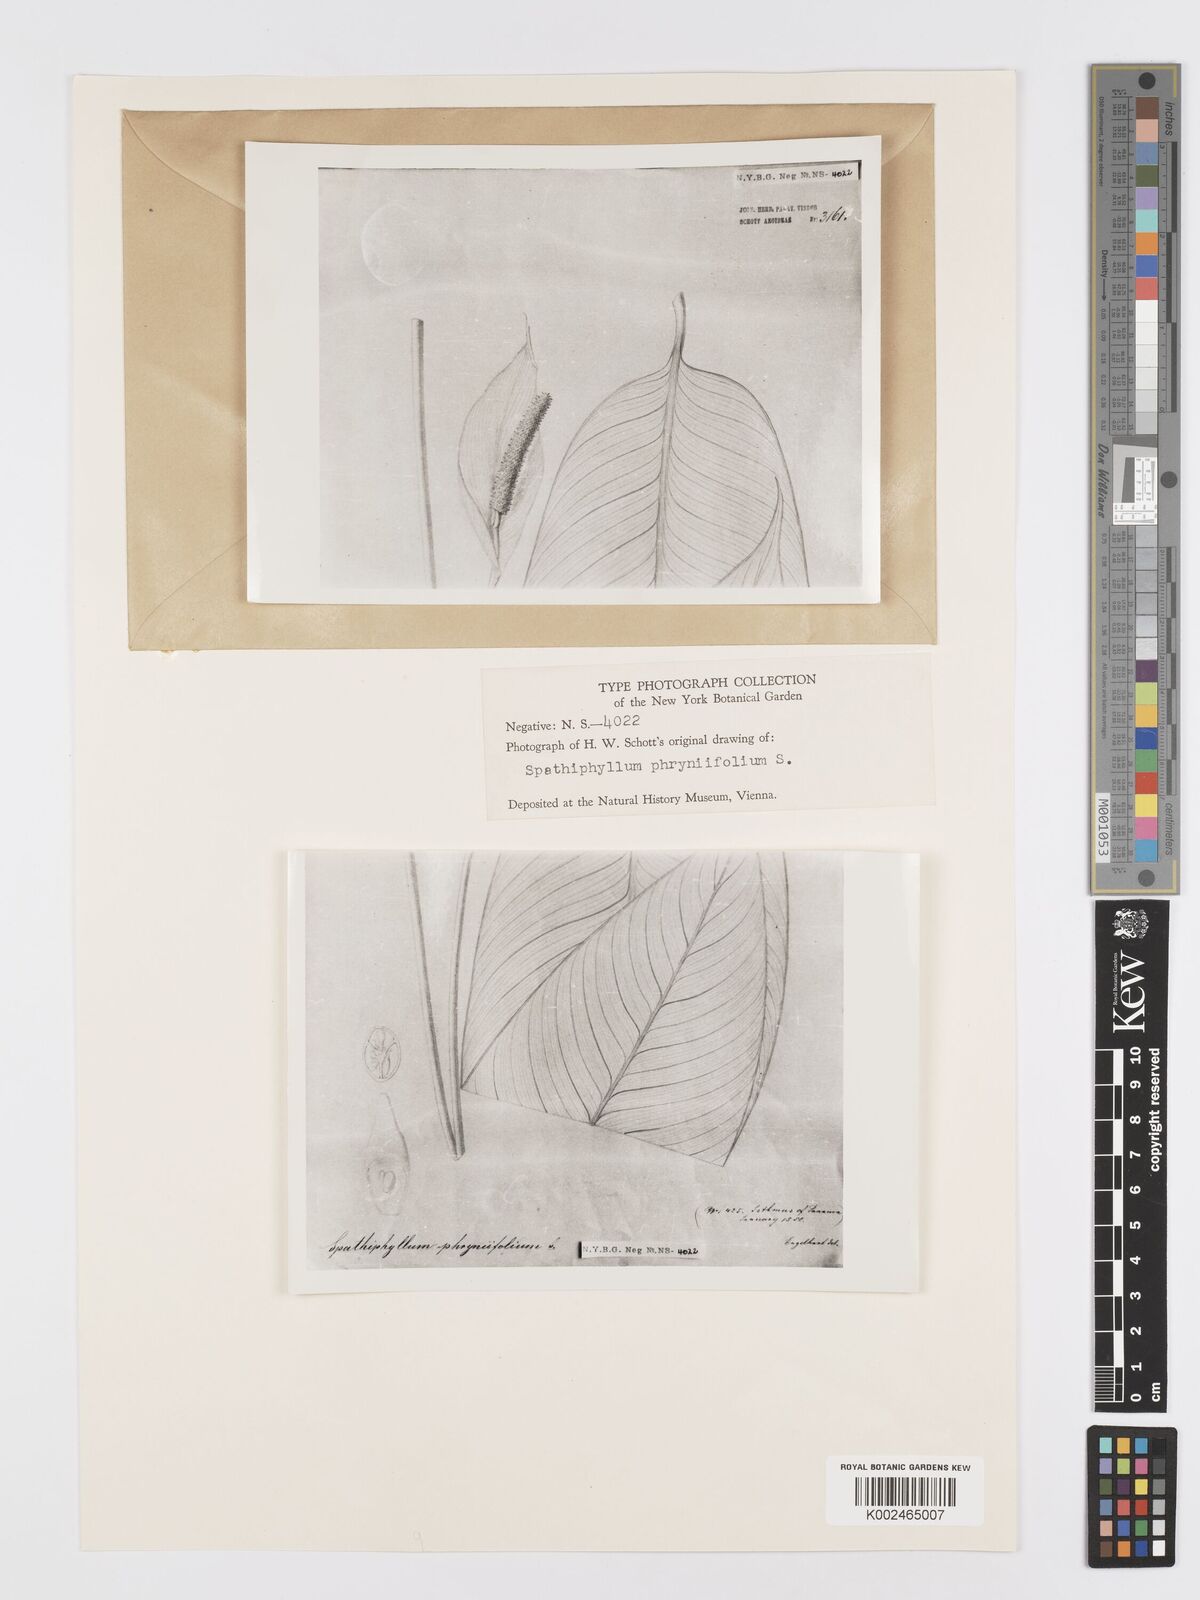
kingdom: Plantae
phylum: Tracheophyta
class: Liliopsida
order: Alismatales
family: Araceae
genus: Spathiphyllum
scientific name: Spathiphyllum phryniifolium
